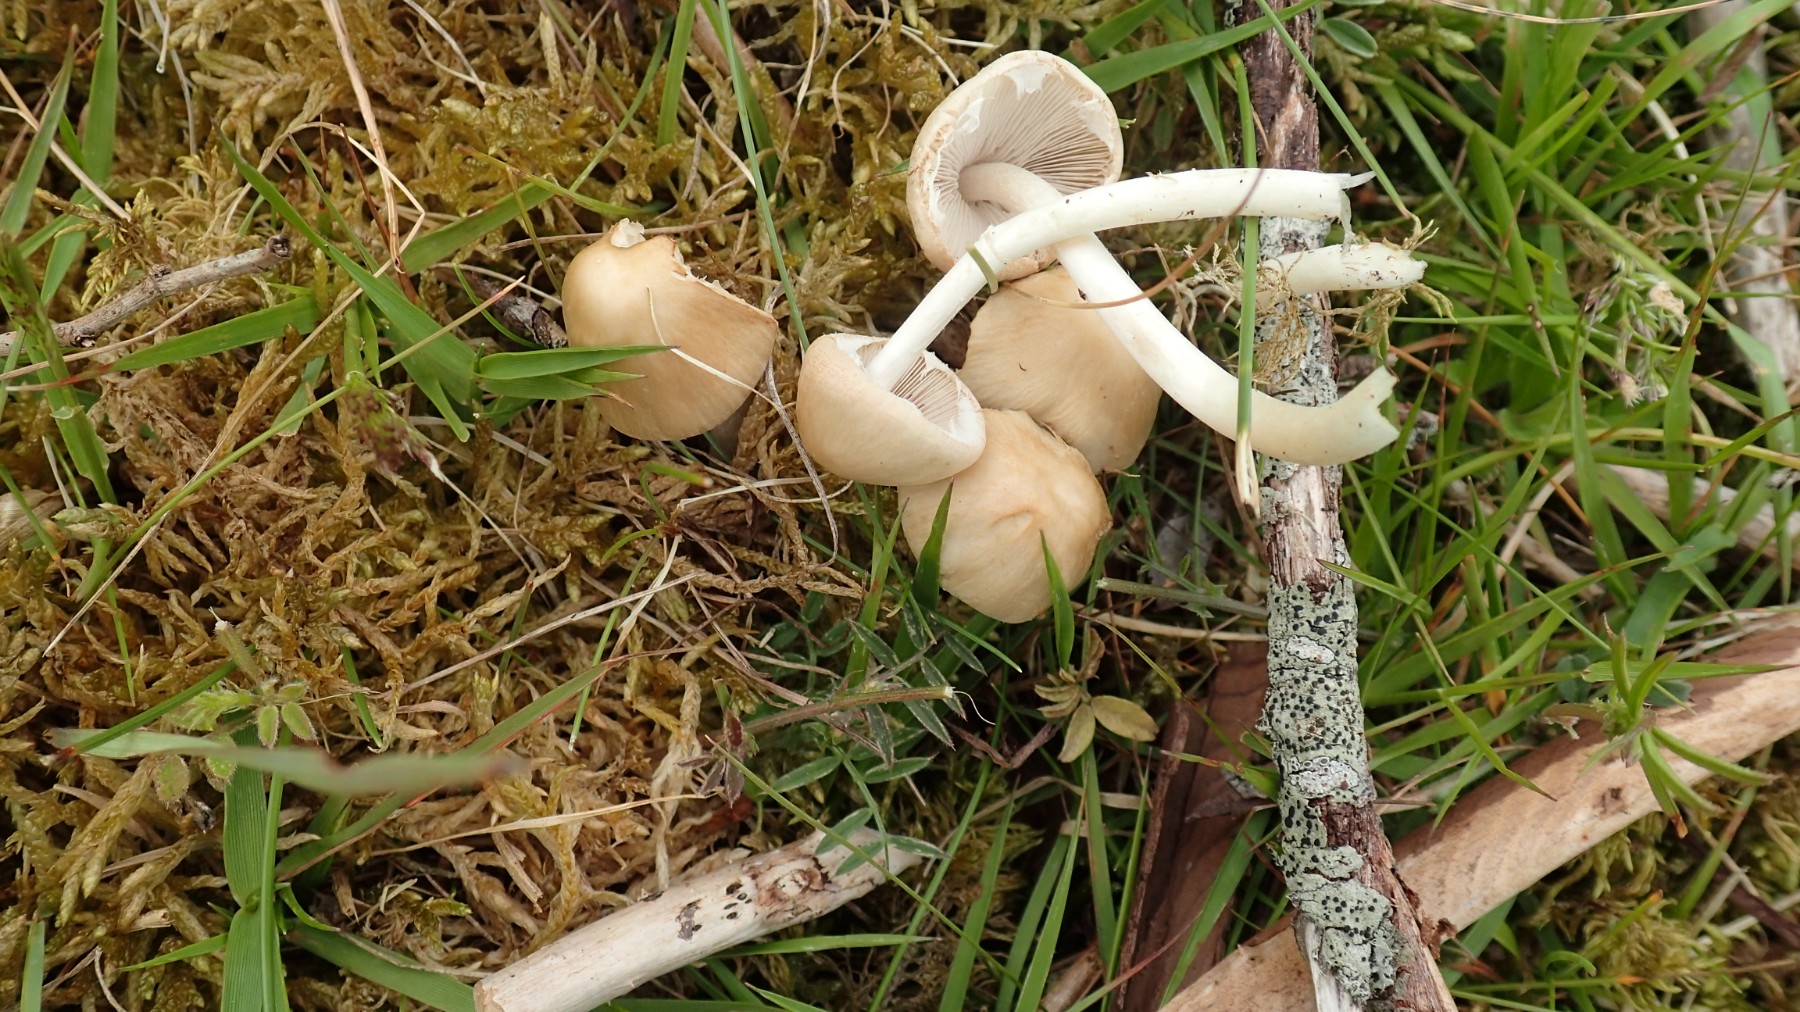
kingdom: Fungi
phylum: Basidiomycota
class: Agaricomycetes
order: Agaricales
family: Psathyrellaceae
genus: Candolleomyces
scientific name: Candolleomyces candolleanus
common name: Candolles mørkhat
